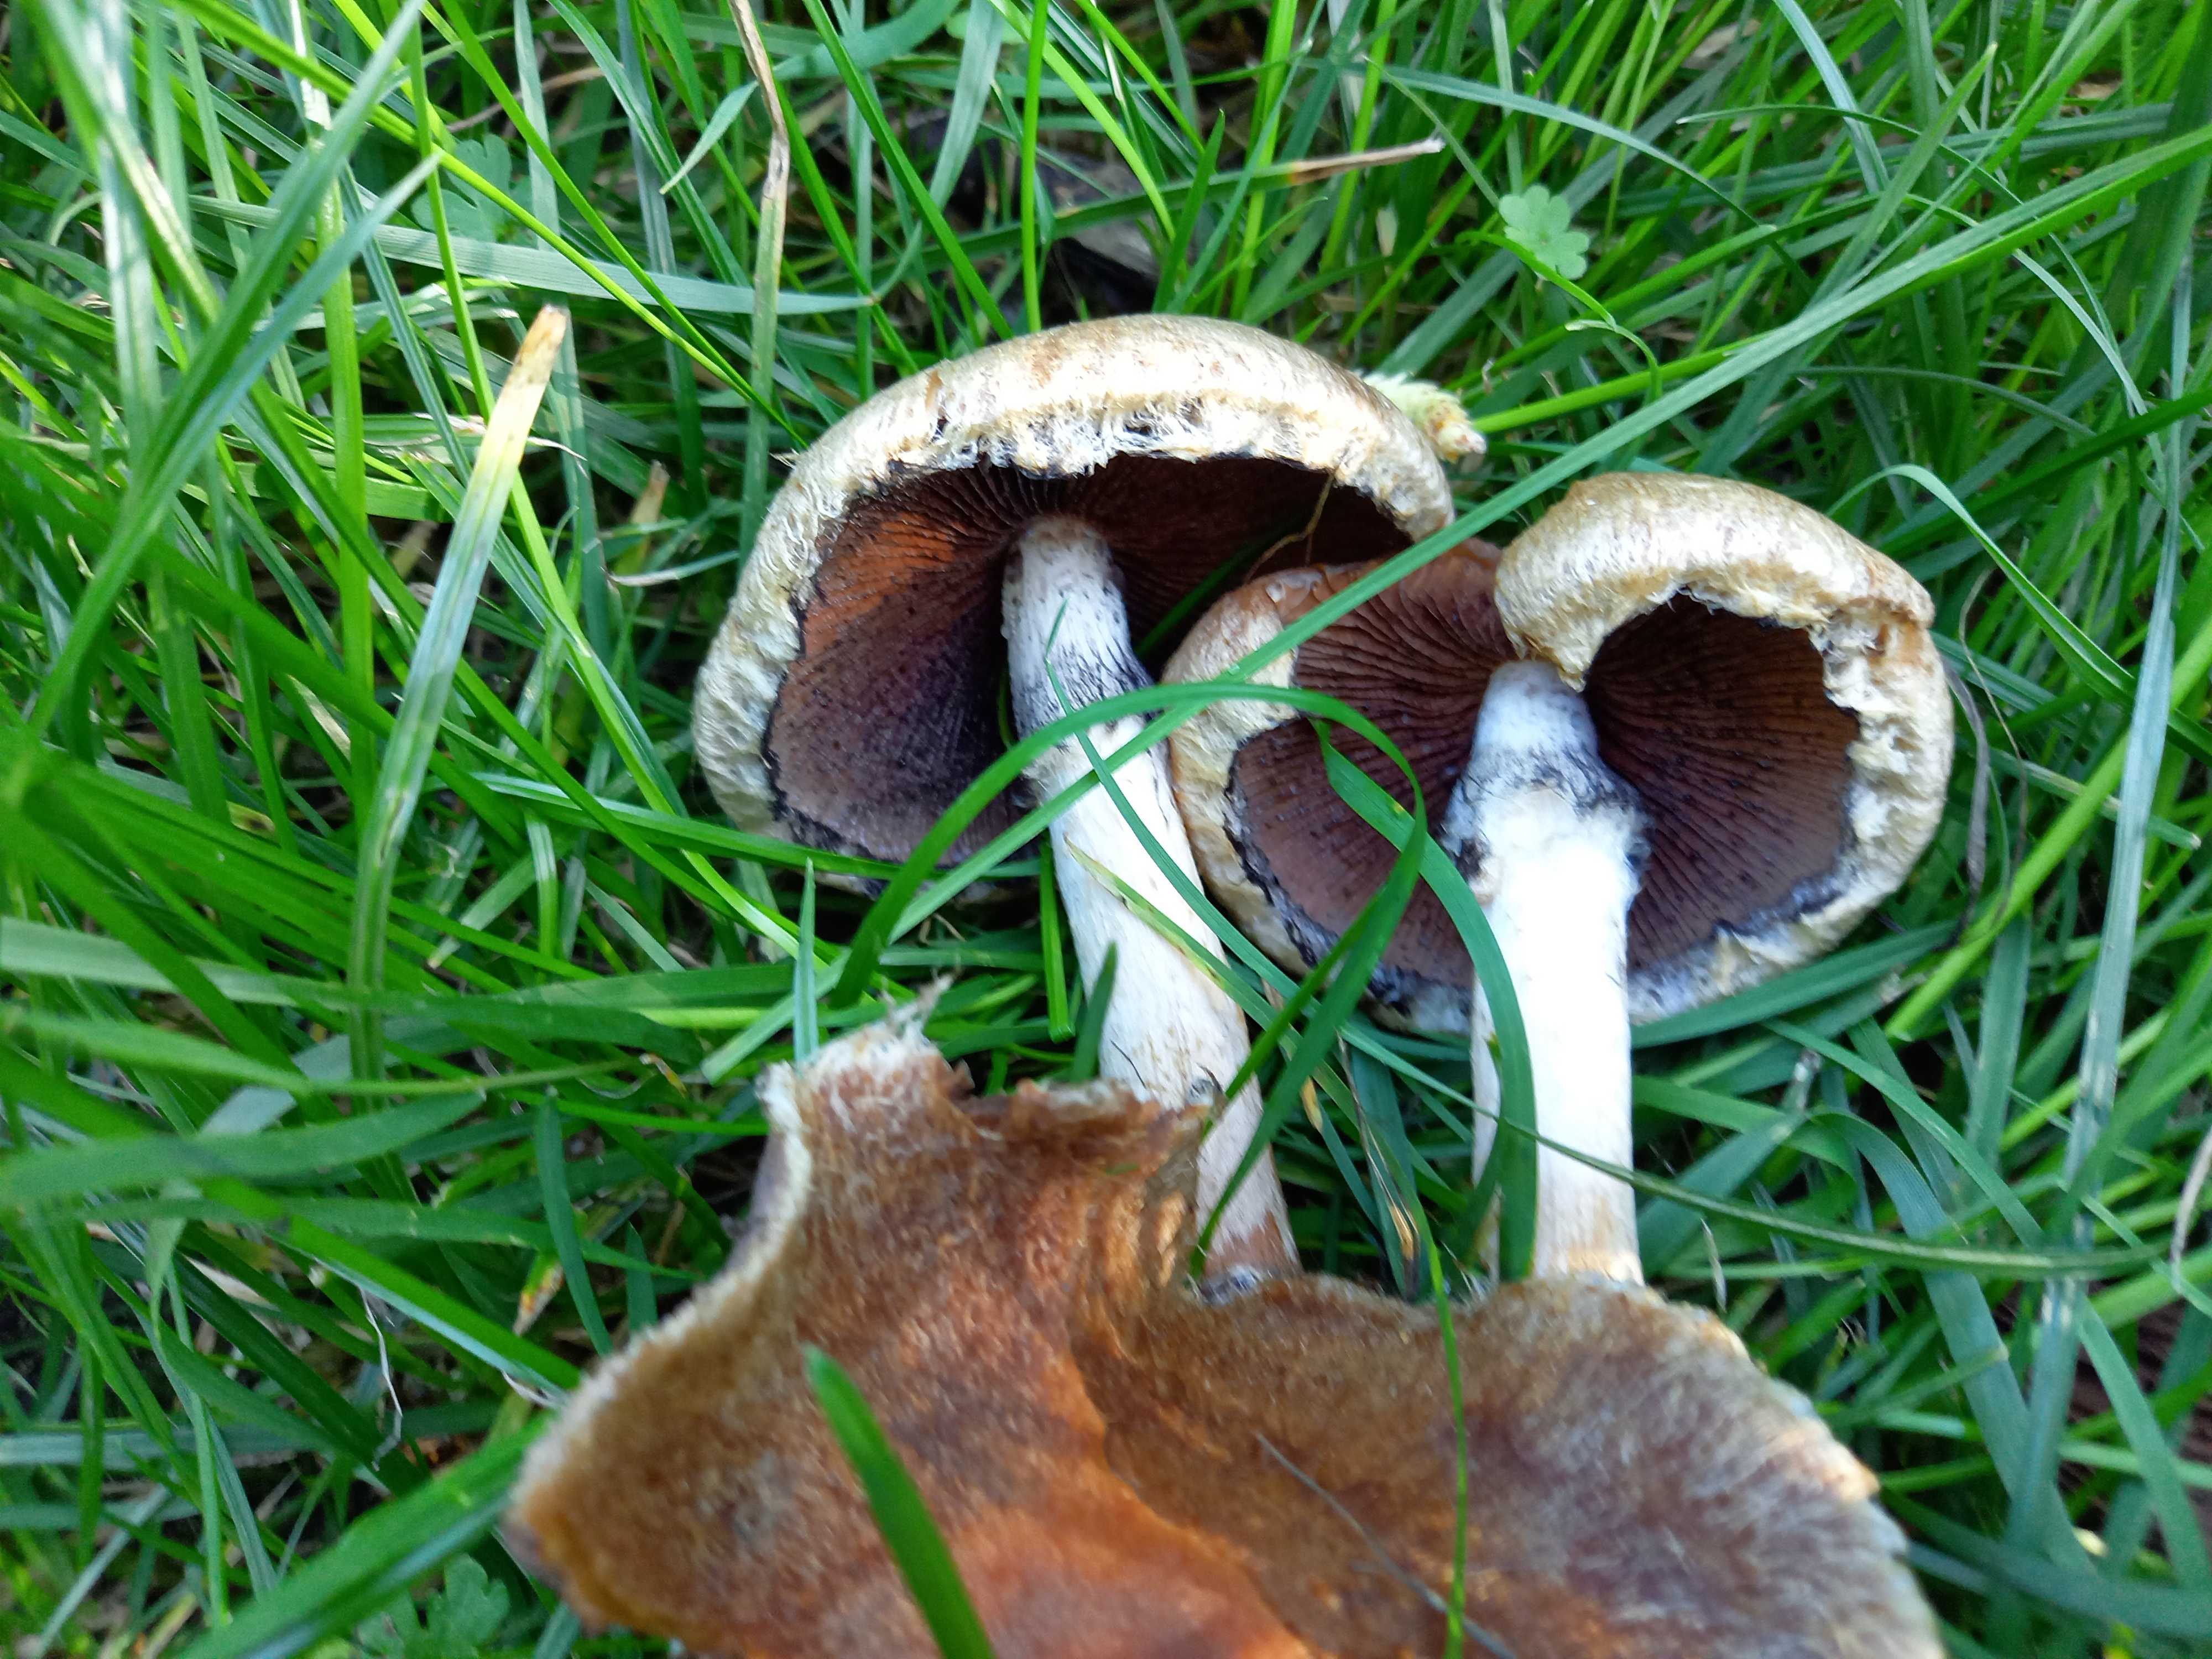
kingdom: Fungi
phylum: Basidiomycota
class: Agaricomycetes
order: Agaricales
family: Psathyrellaceae
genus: Lacrymaria
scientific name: Lacrymaria lacrymabunda
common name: grædende mørkhat
